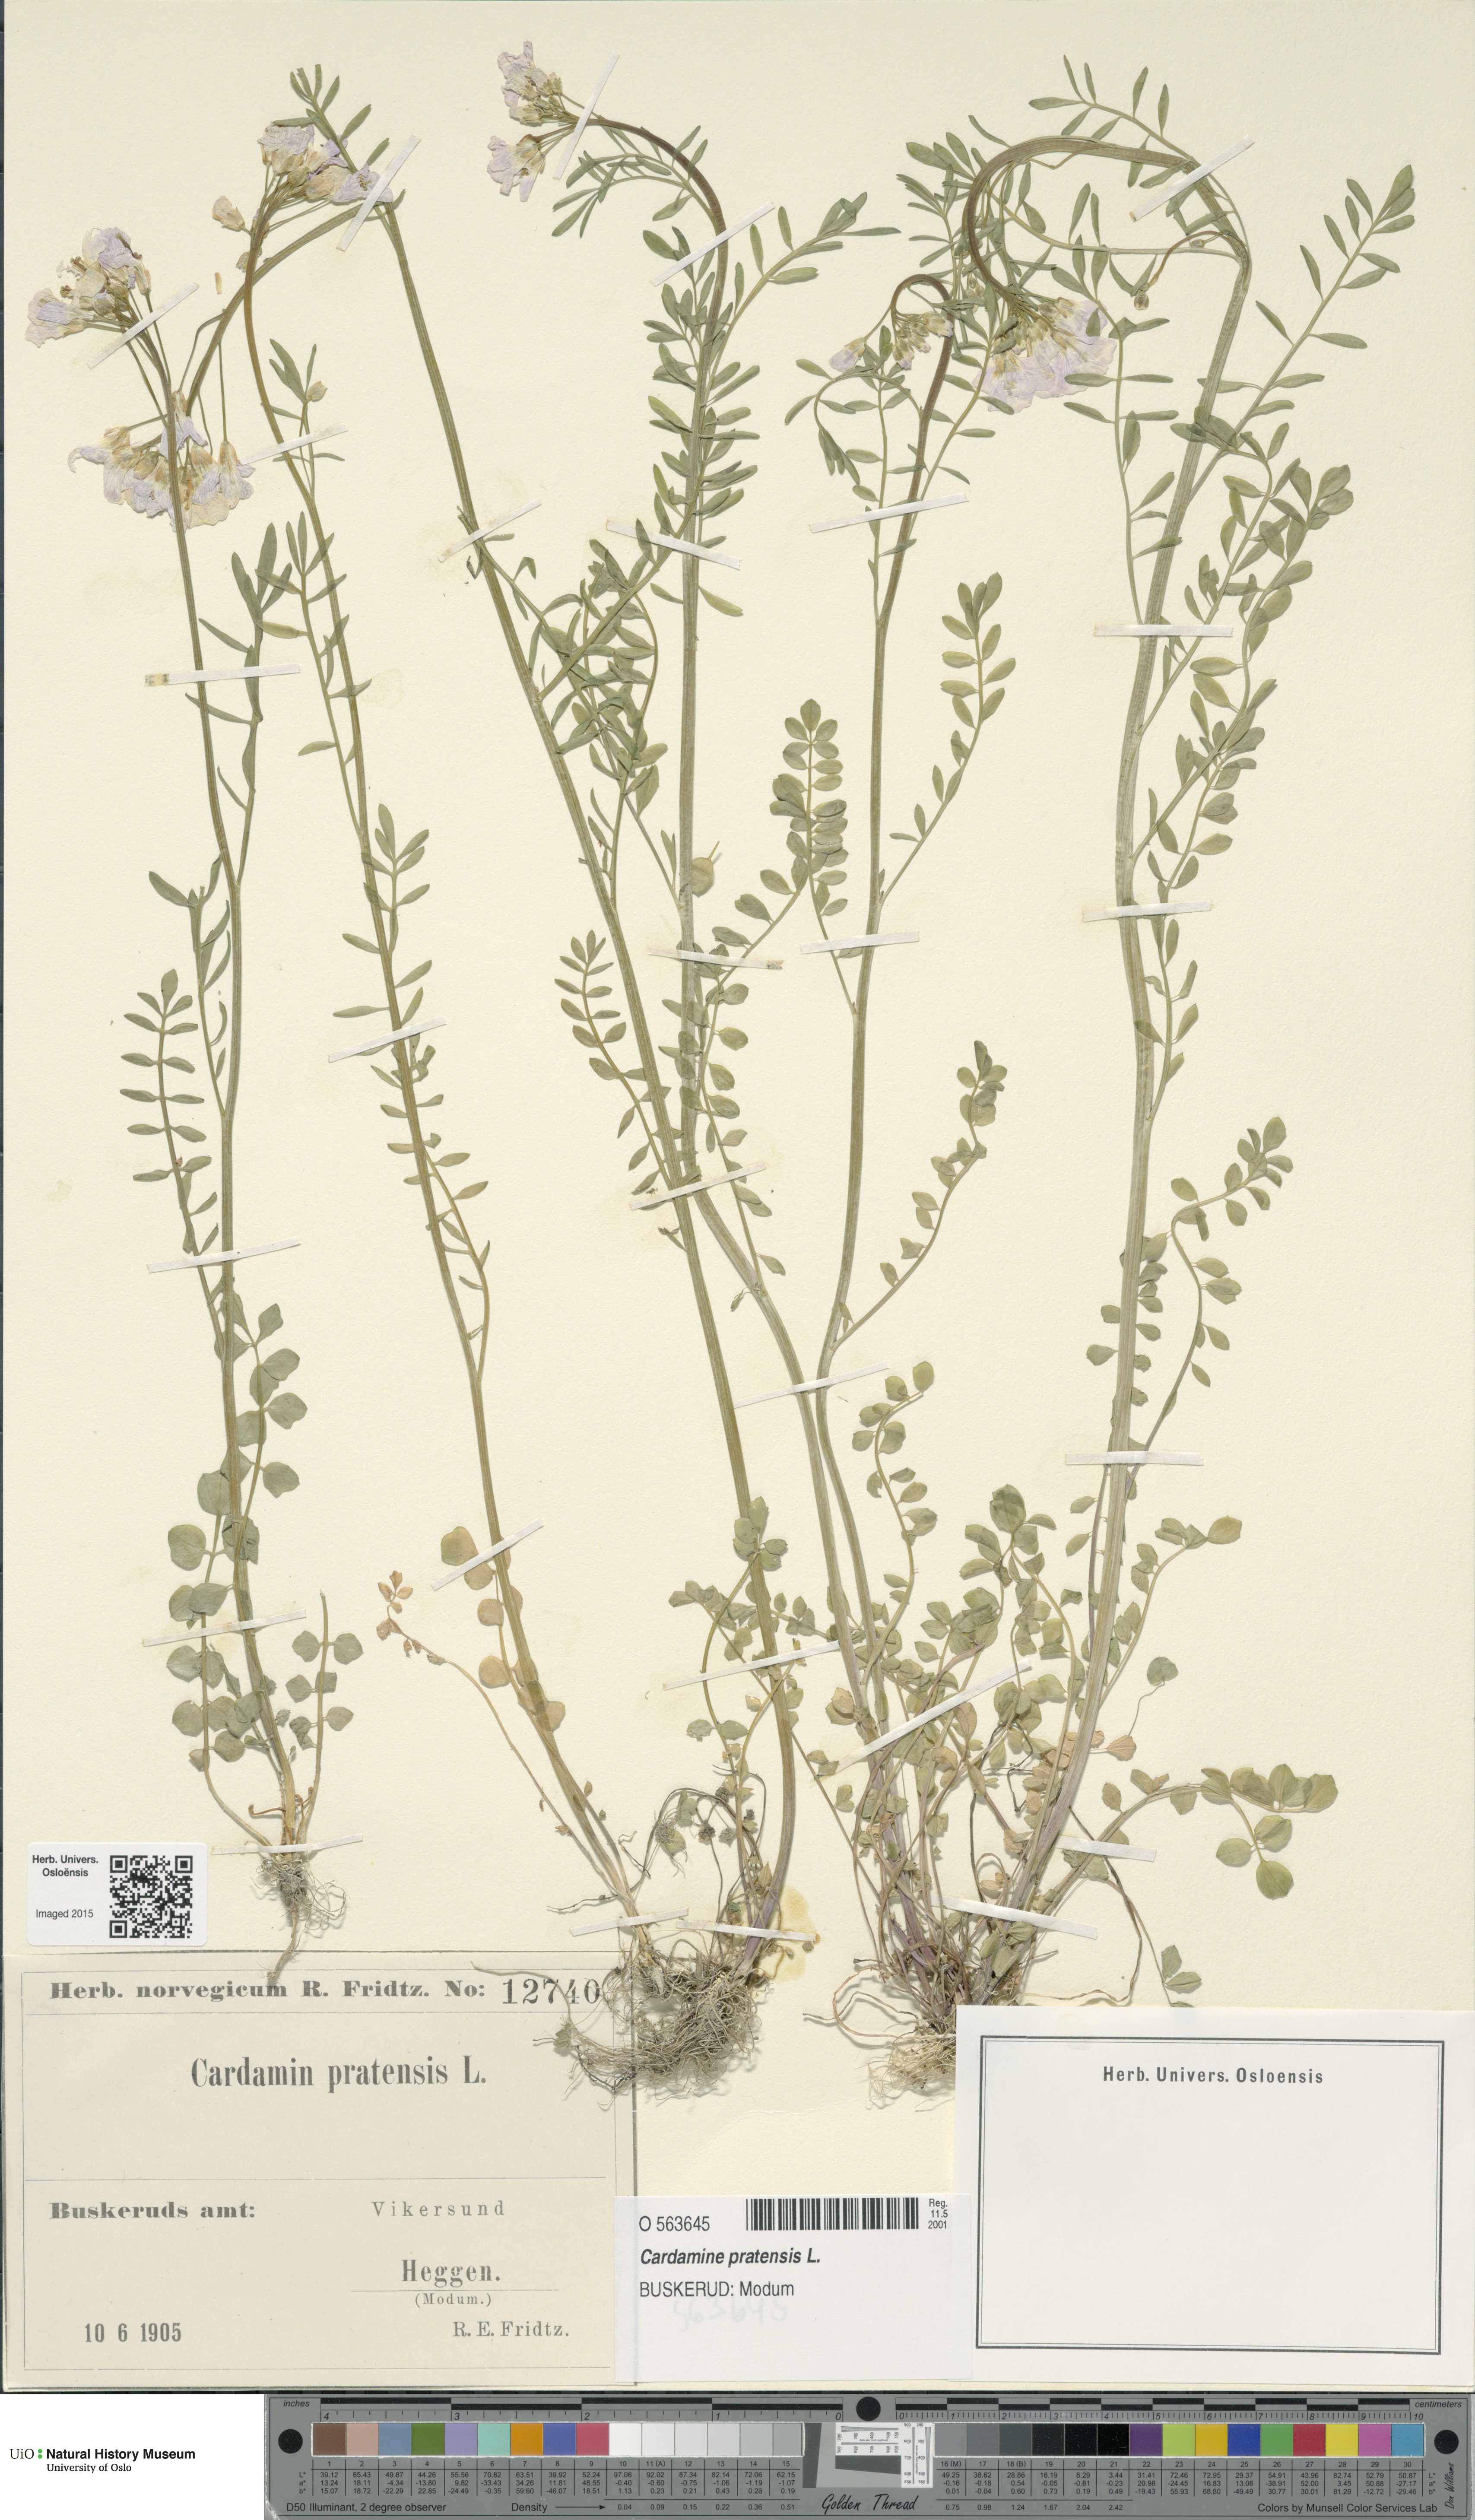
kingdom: Plantae
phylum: Tracheophyta
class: Magnoliopsida
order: Brassicales
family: Brassicaceae
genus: Cardamine
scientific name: Cardamine pratensis
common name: Cuckoo flower
